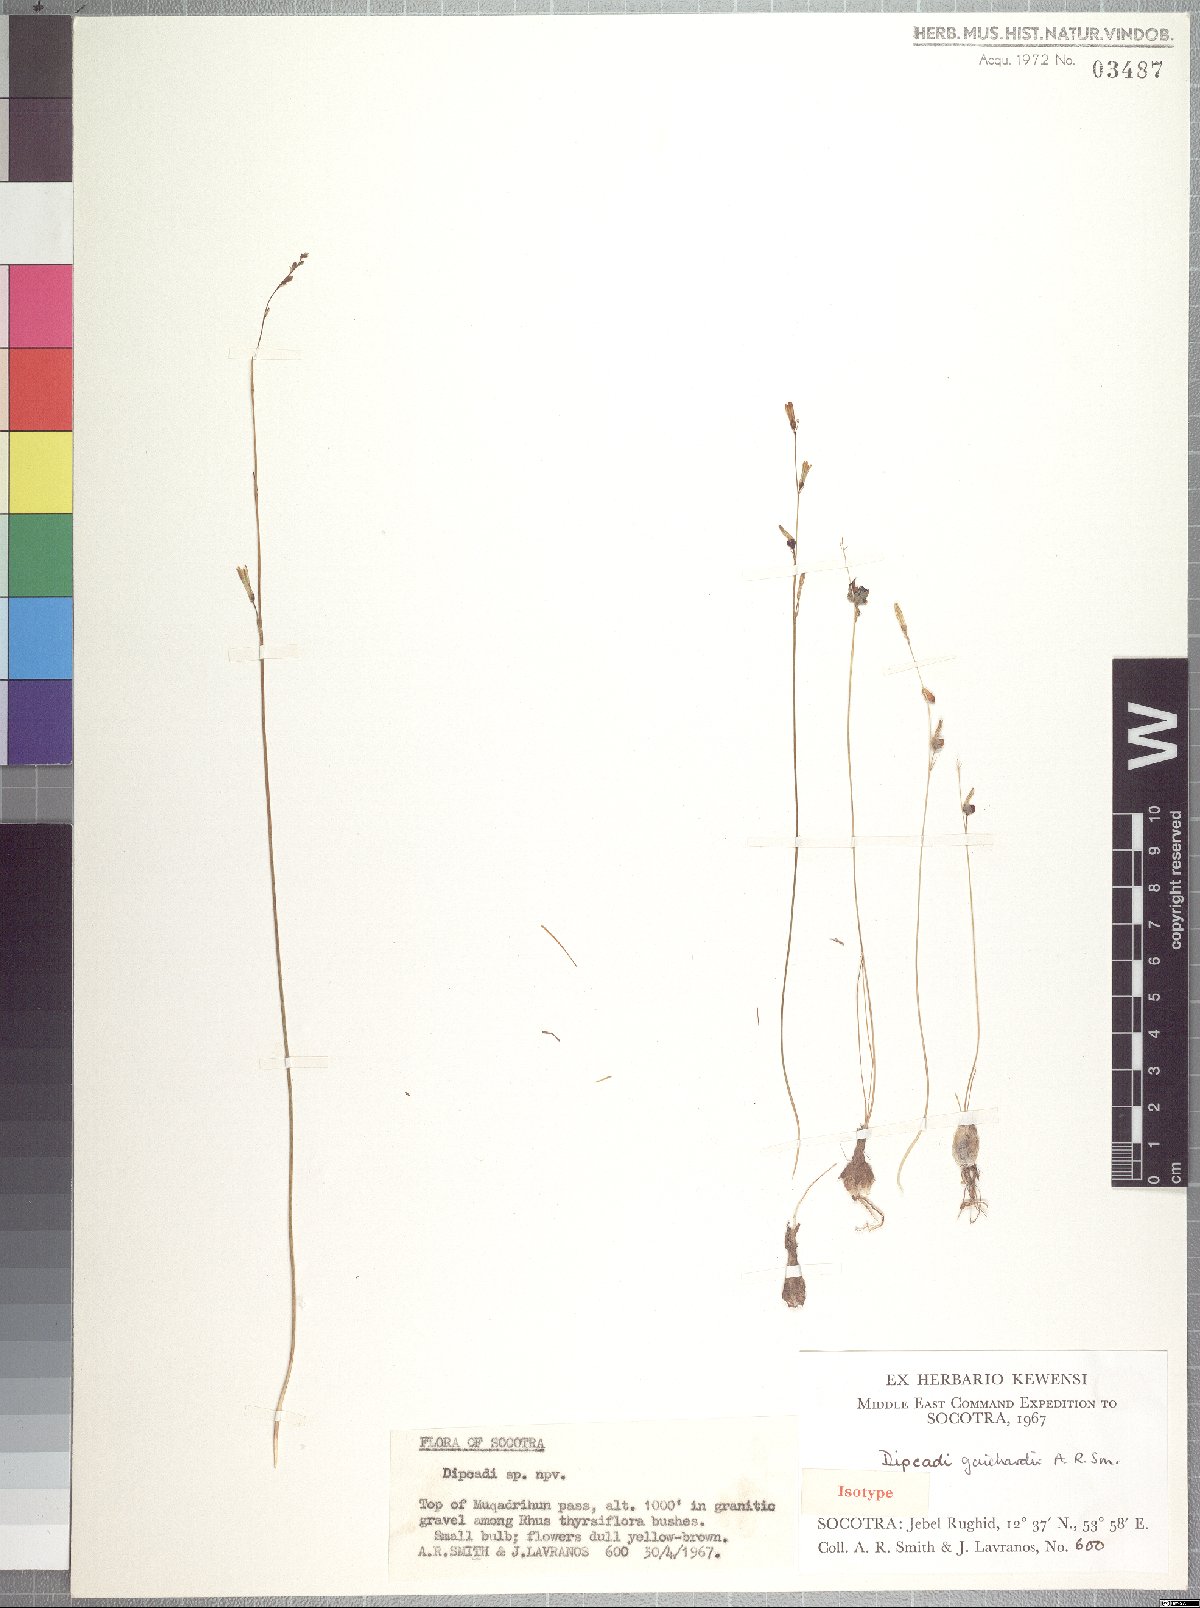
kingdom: Plantae
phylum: Tracheophyta
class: Liliopsida
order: Asparagales
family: Asparagaceae
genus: Dipcadi
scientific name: Dipcadi guichardii
